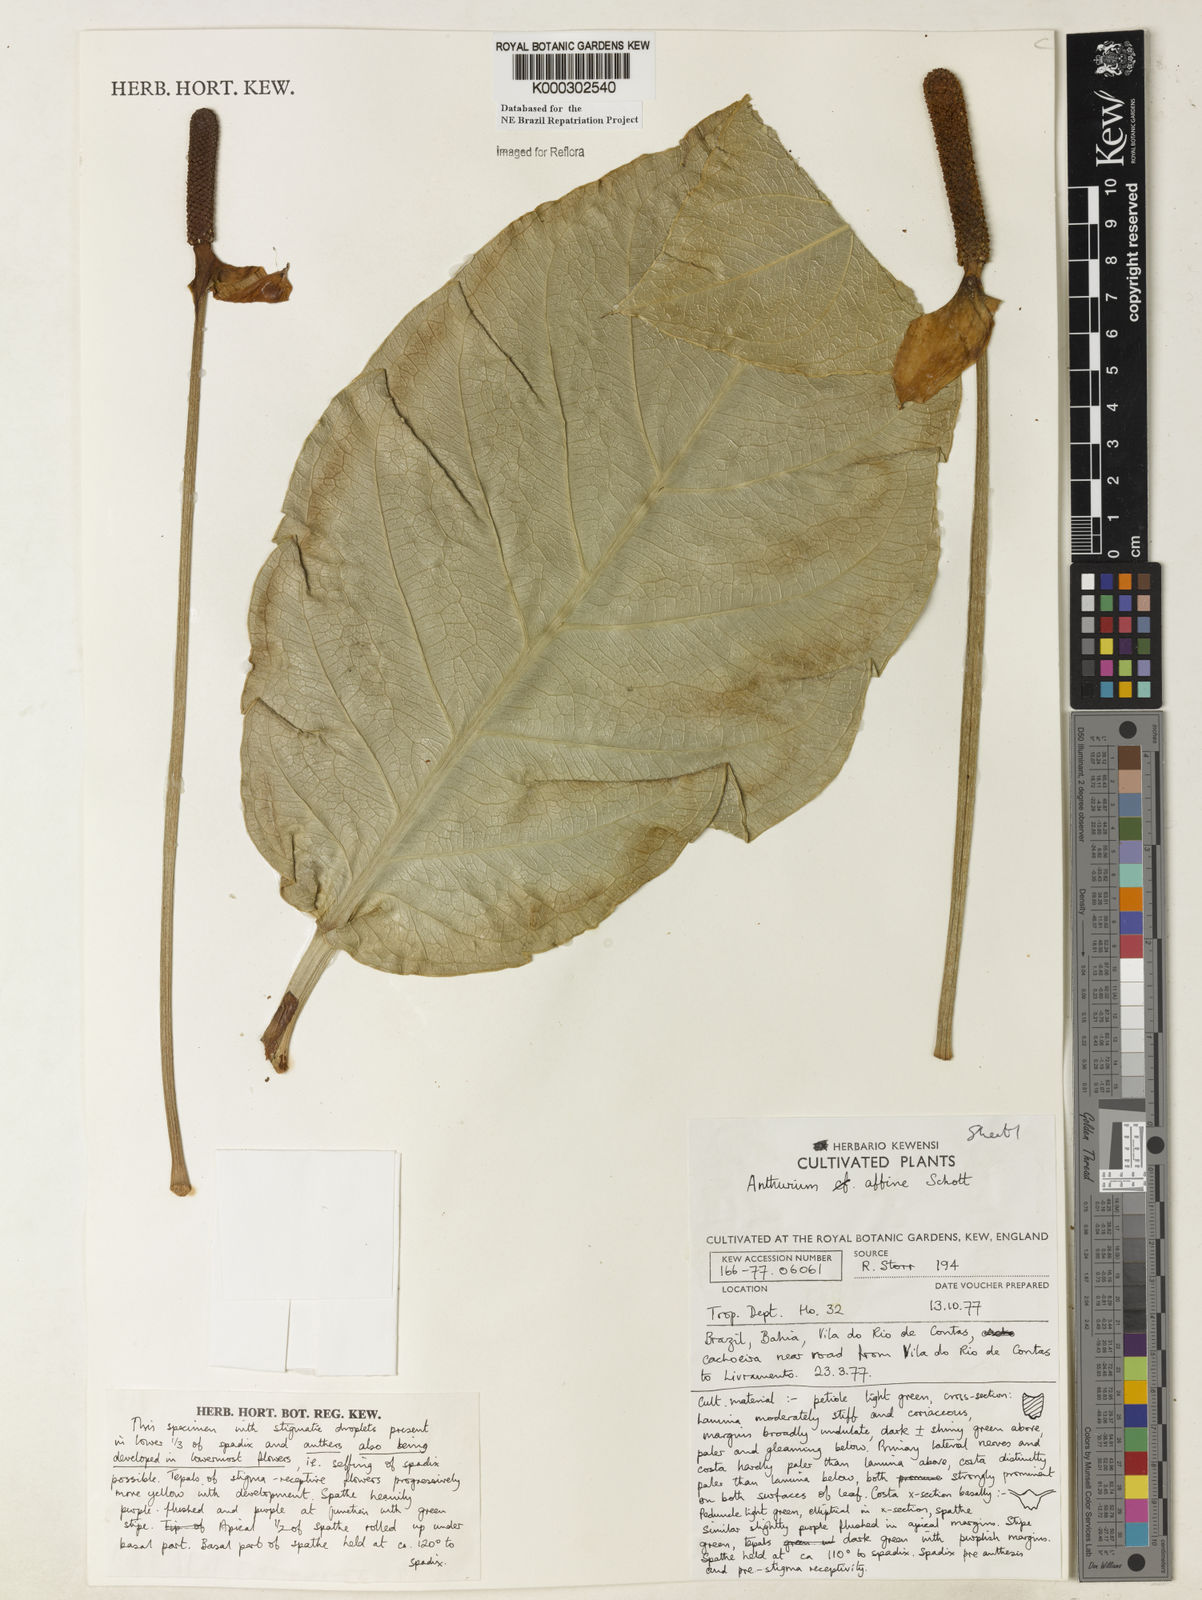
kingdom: Plantae
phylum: Tracheophyta
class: Liliopsida
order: Alismatales
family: Araceae
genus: Anthurium
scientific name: Anthurium affine
